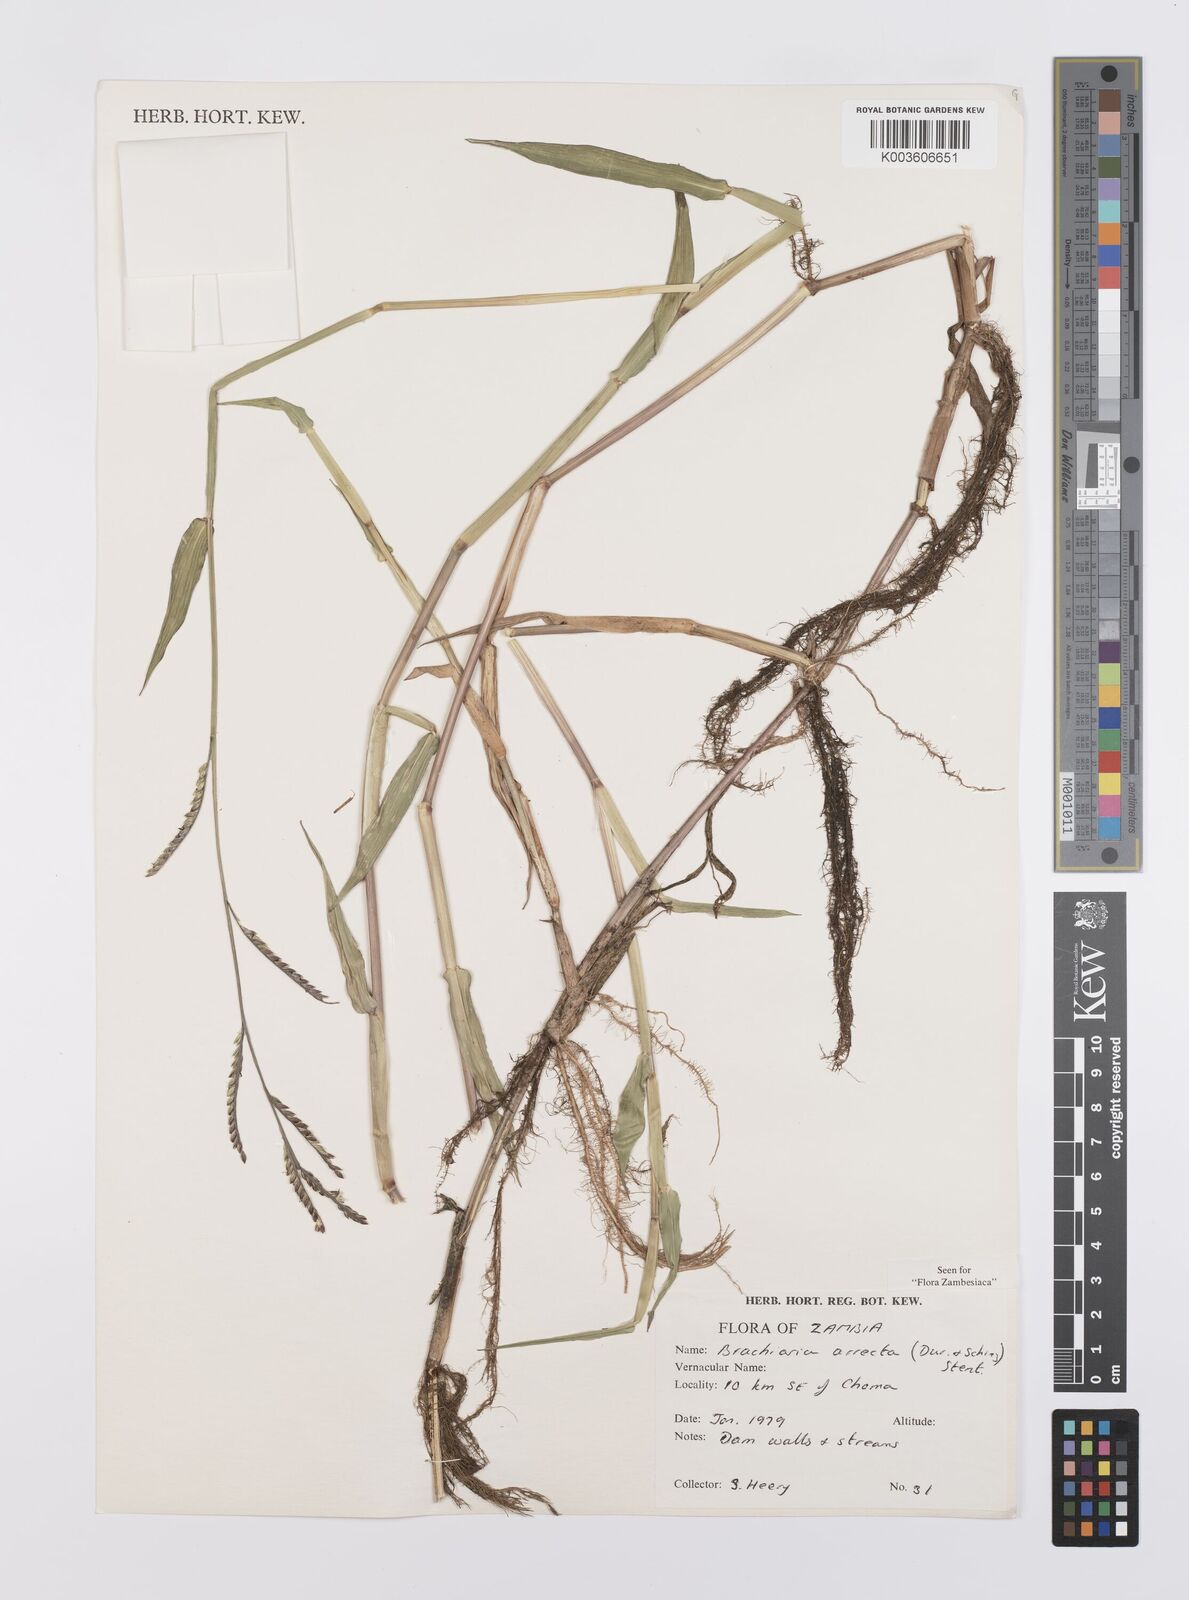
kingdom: Plantae
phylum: Tracheophyta
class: Liliopsida
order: Poales
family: Poaceae
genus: Urochloa
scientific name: Urochloa arrecta
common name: African signalgrass
